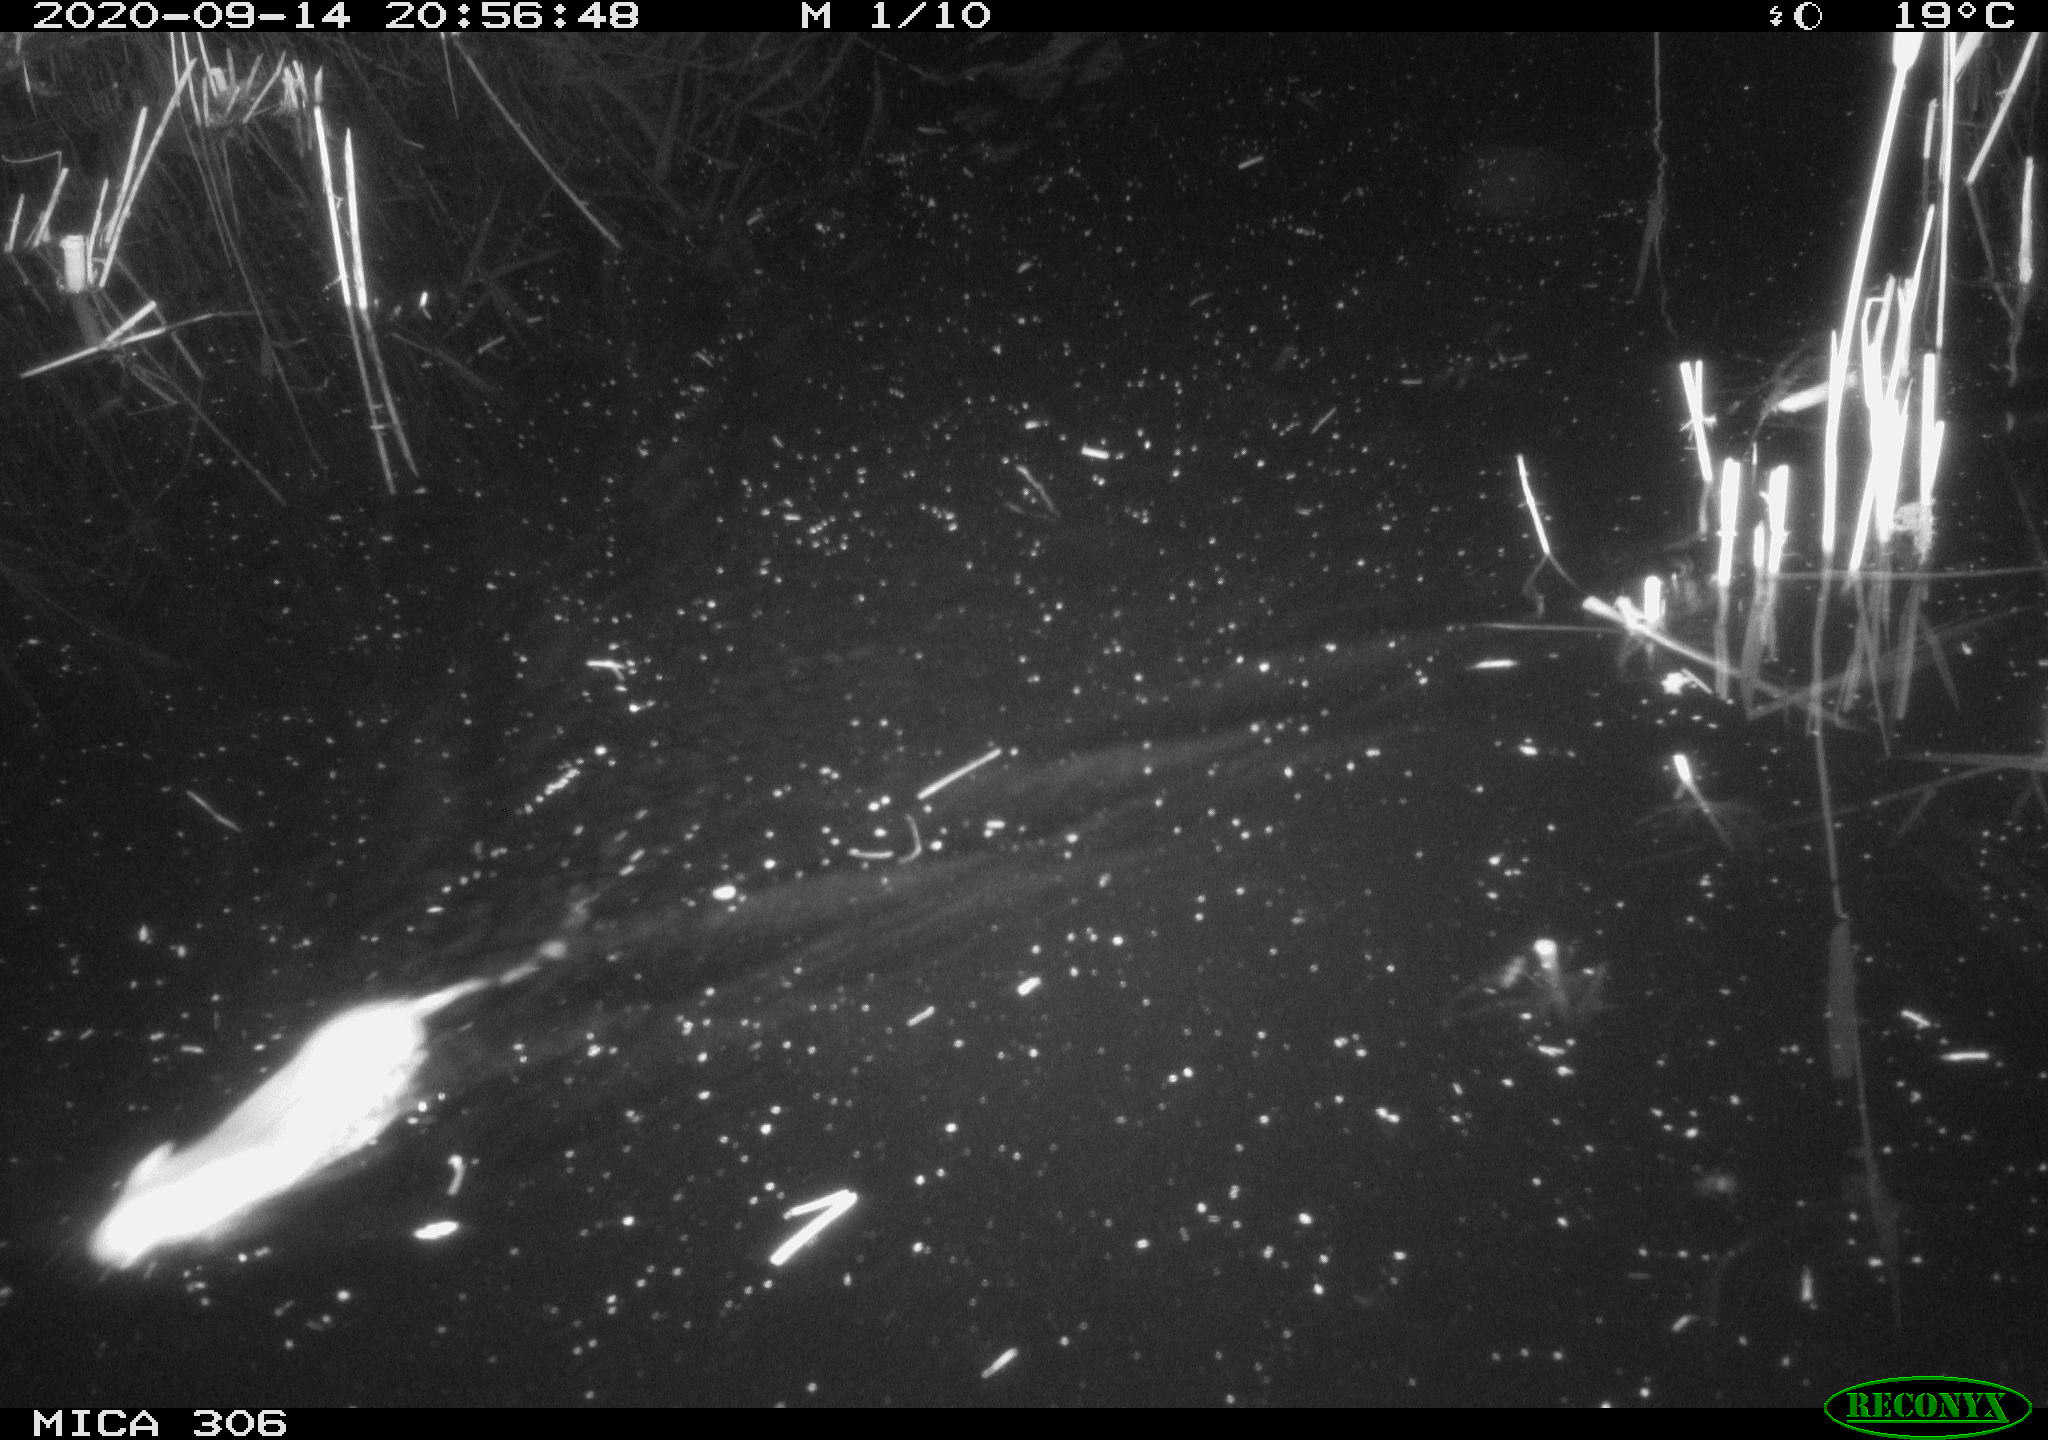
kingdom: Animalia
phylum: Chordata
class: Mammalia
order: Rodentia
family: Cricetidae
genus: Ondatra
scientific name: Ondatra zibethicus
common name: Muskrat
